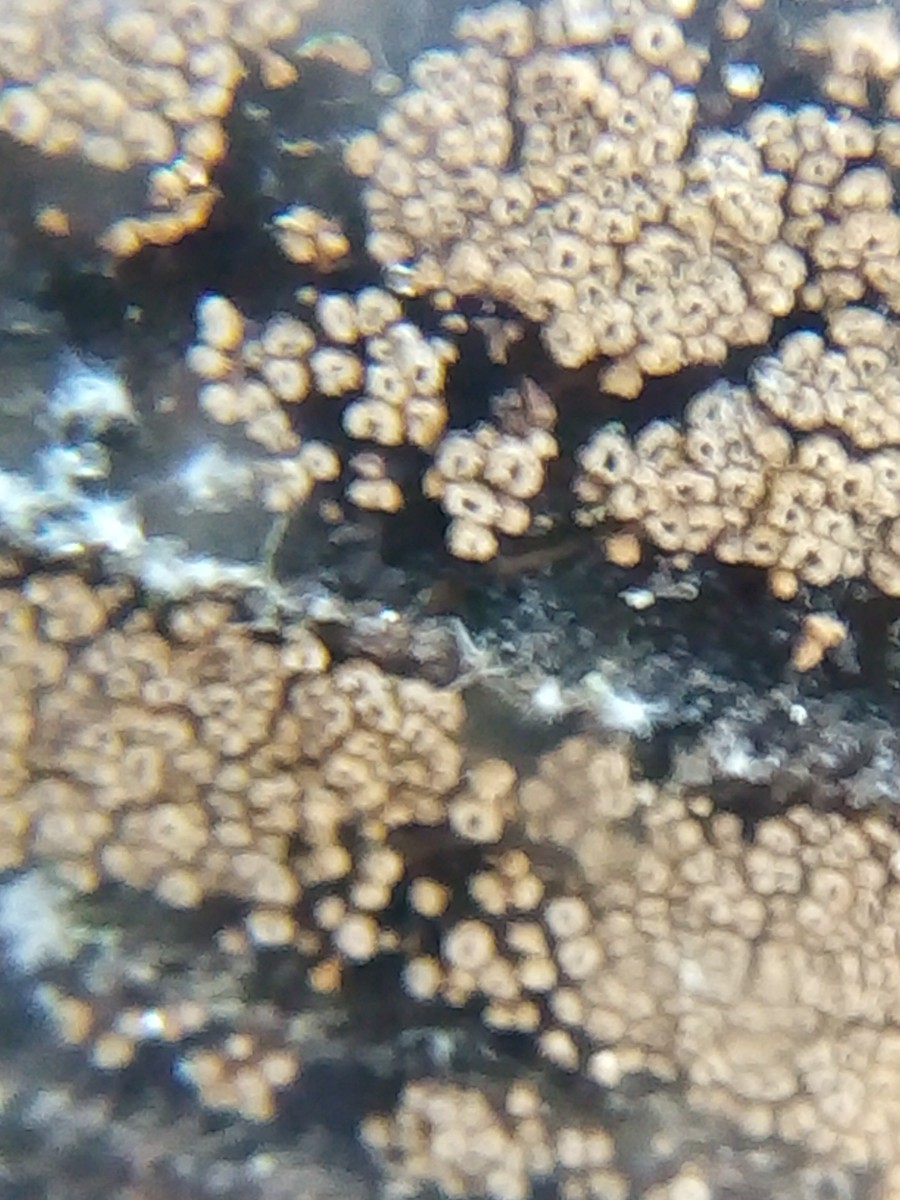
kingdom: Fungi
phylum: Basidiomycota
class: Agaricomycetes
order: Agaricales
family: Niaceae
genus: Merismodes
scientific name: Merismodes anomala
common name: almindelig læderskål
